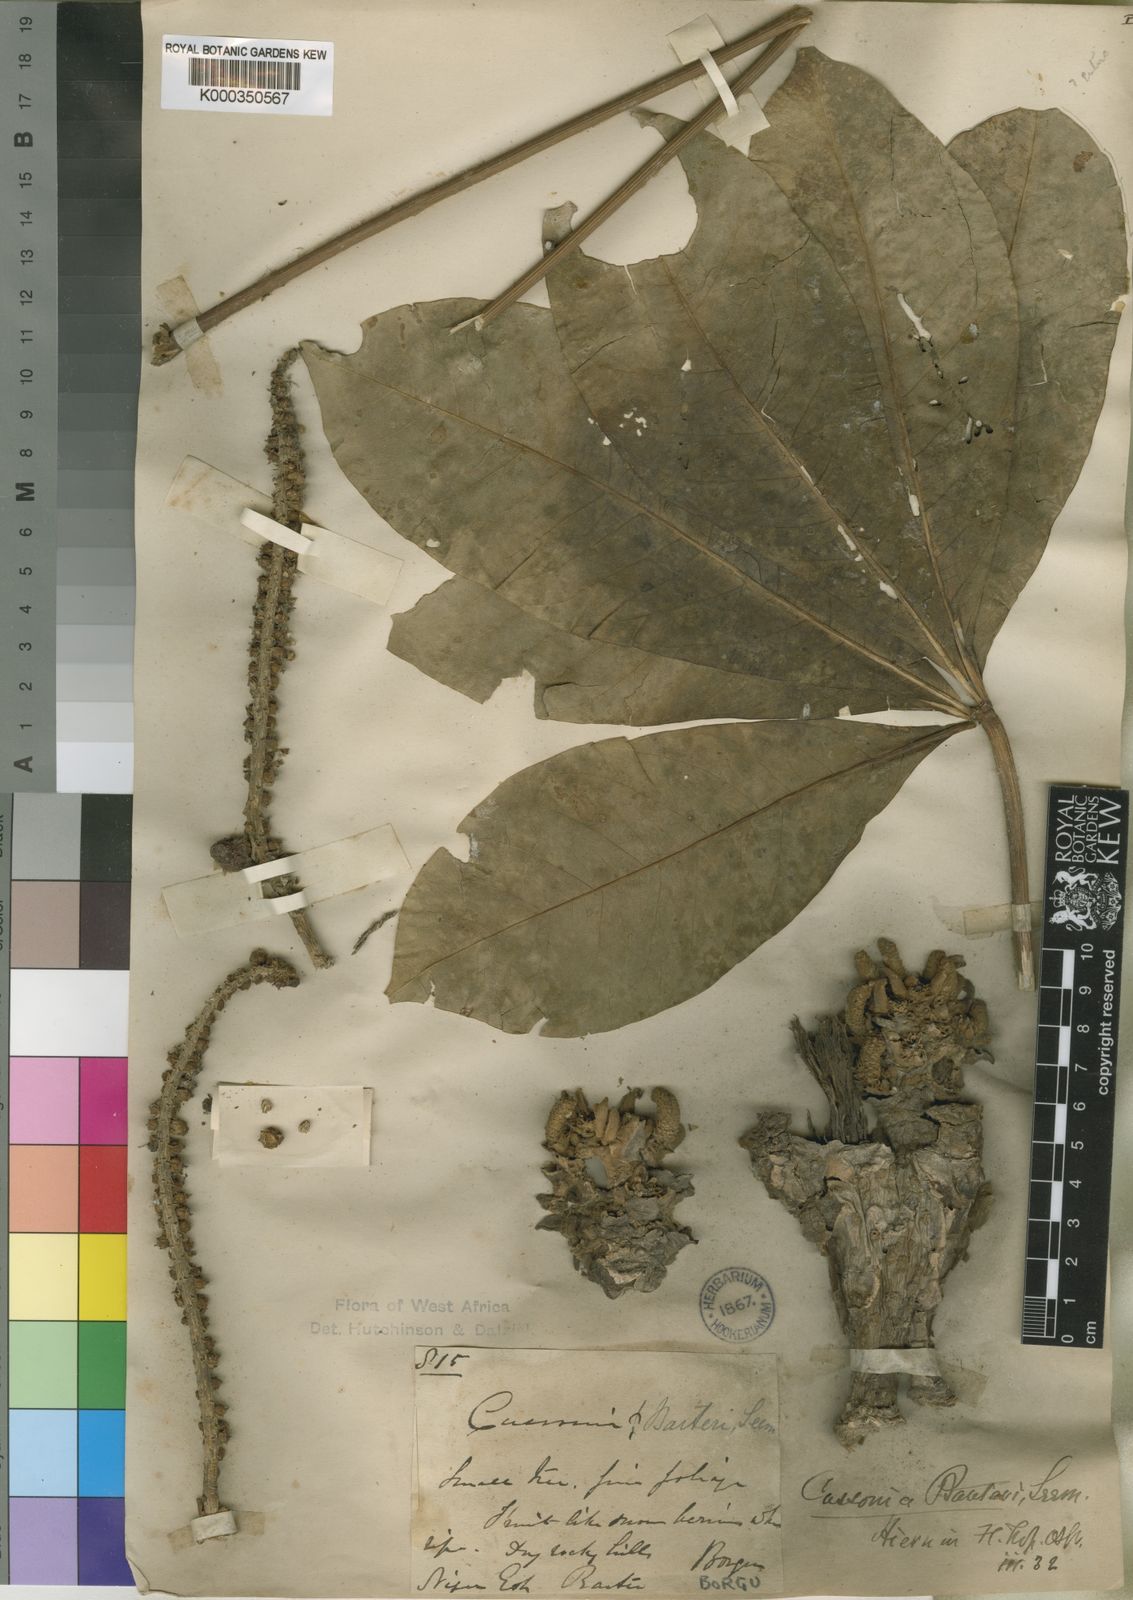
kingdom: Plantae
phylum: Tracheophyta
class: Magnoliopsida
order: Apiales
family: Araliaceae
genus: Cussonia
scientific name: Cussonia arborea
